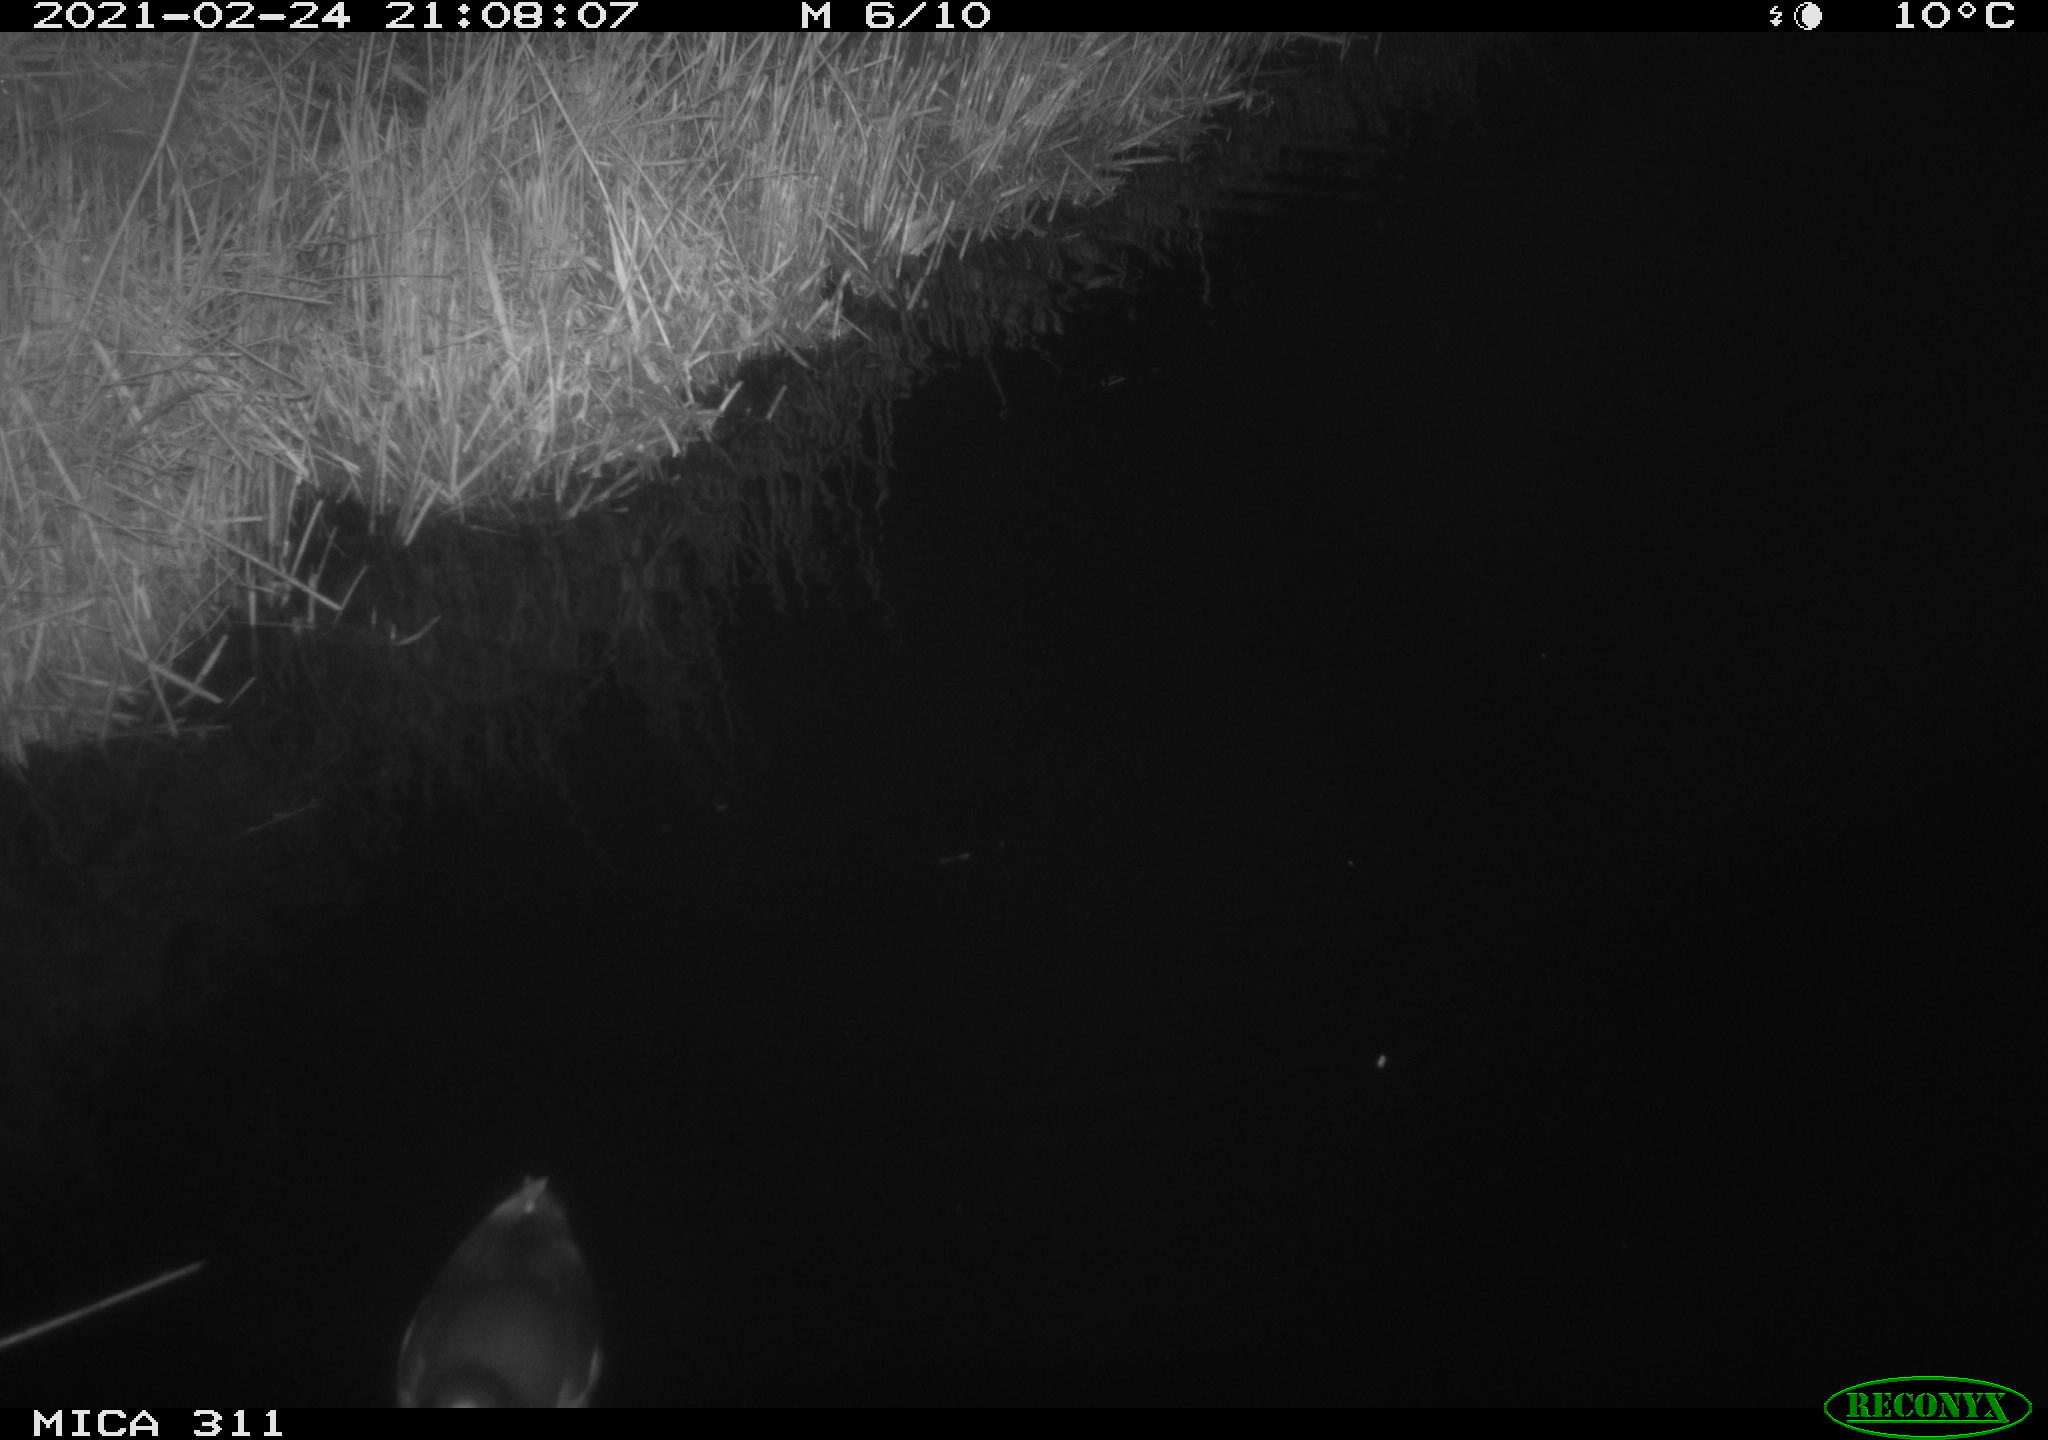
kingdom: Animalia
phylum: Chordata
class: Aves
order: Gruiformes
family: Rallidae
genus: Gallinula
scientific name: Gallinula chloropus
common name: Common moorhen
